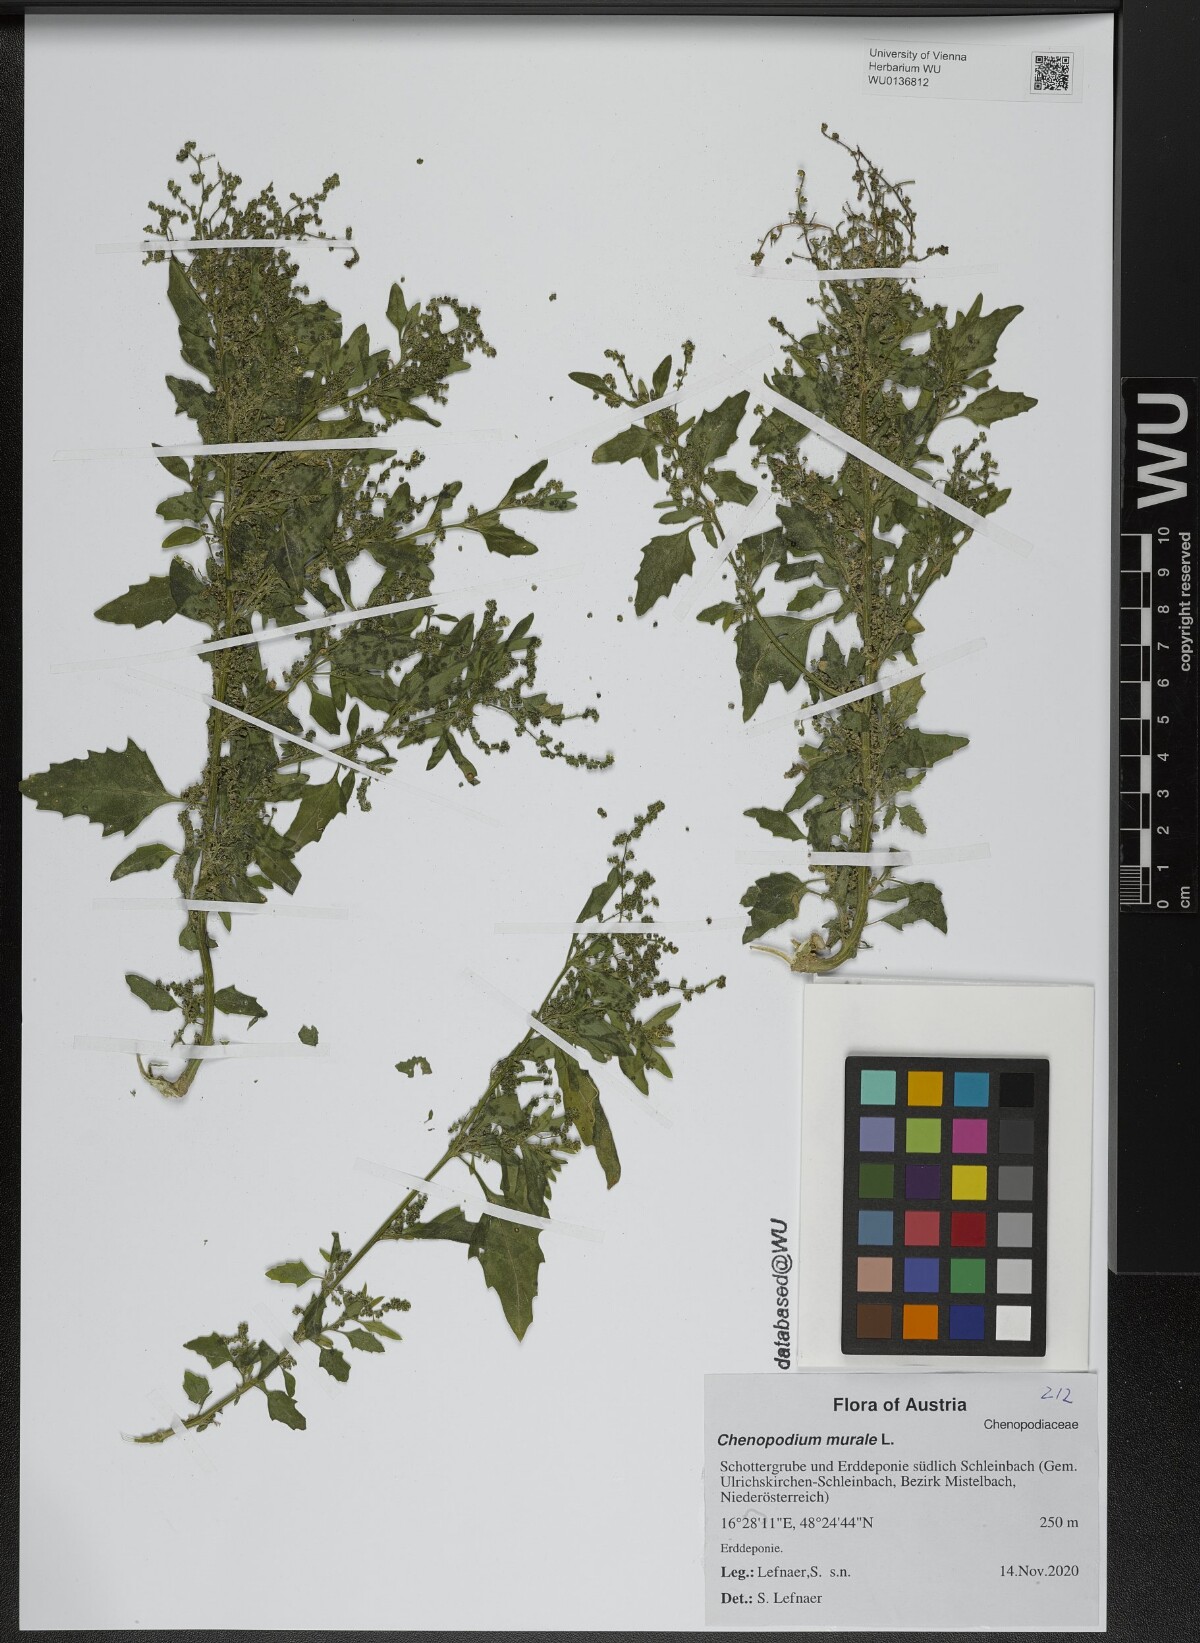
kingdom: Plantae
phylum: Tracheophyta
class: Magnoliopsida
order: Caryophyllales
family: Amaranthaceae
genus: Chenopodiastrum
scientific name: Chenopodiastrum murale
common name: Sowbane
